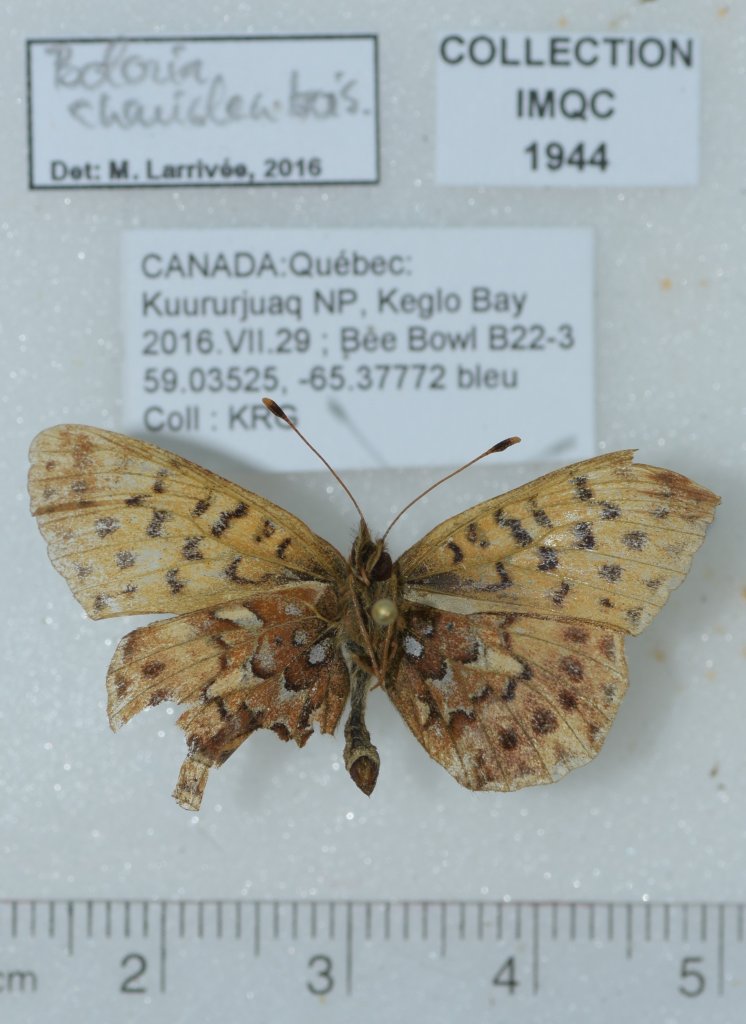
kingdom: Animalia
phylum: Arthropoda
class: Insecta
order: Lepidoptera
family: Nymphalidae
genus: Boloria
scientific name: Boloria chariclea
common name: Arctic Fritillary
